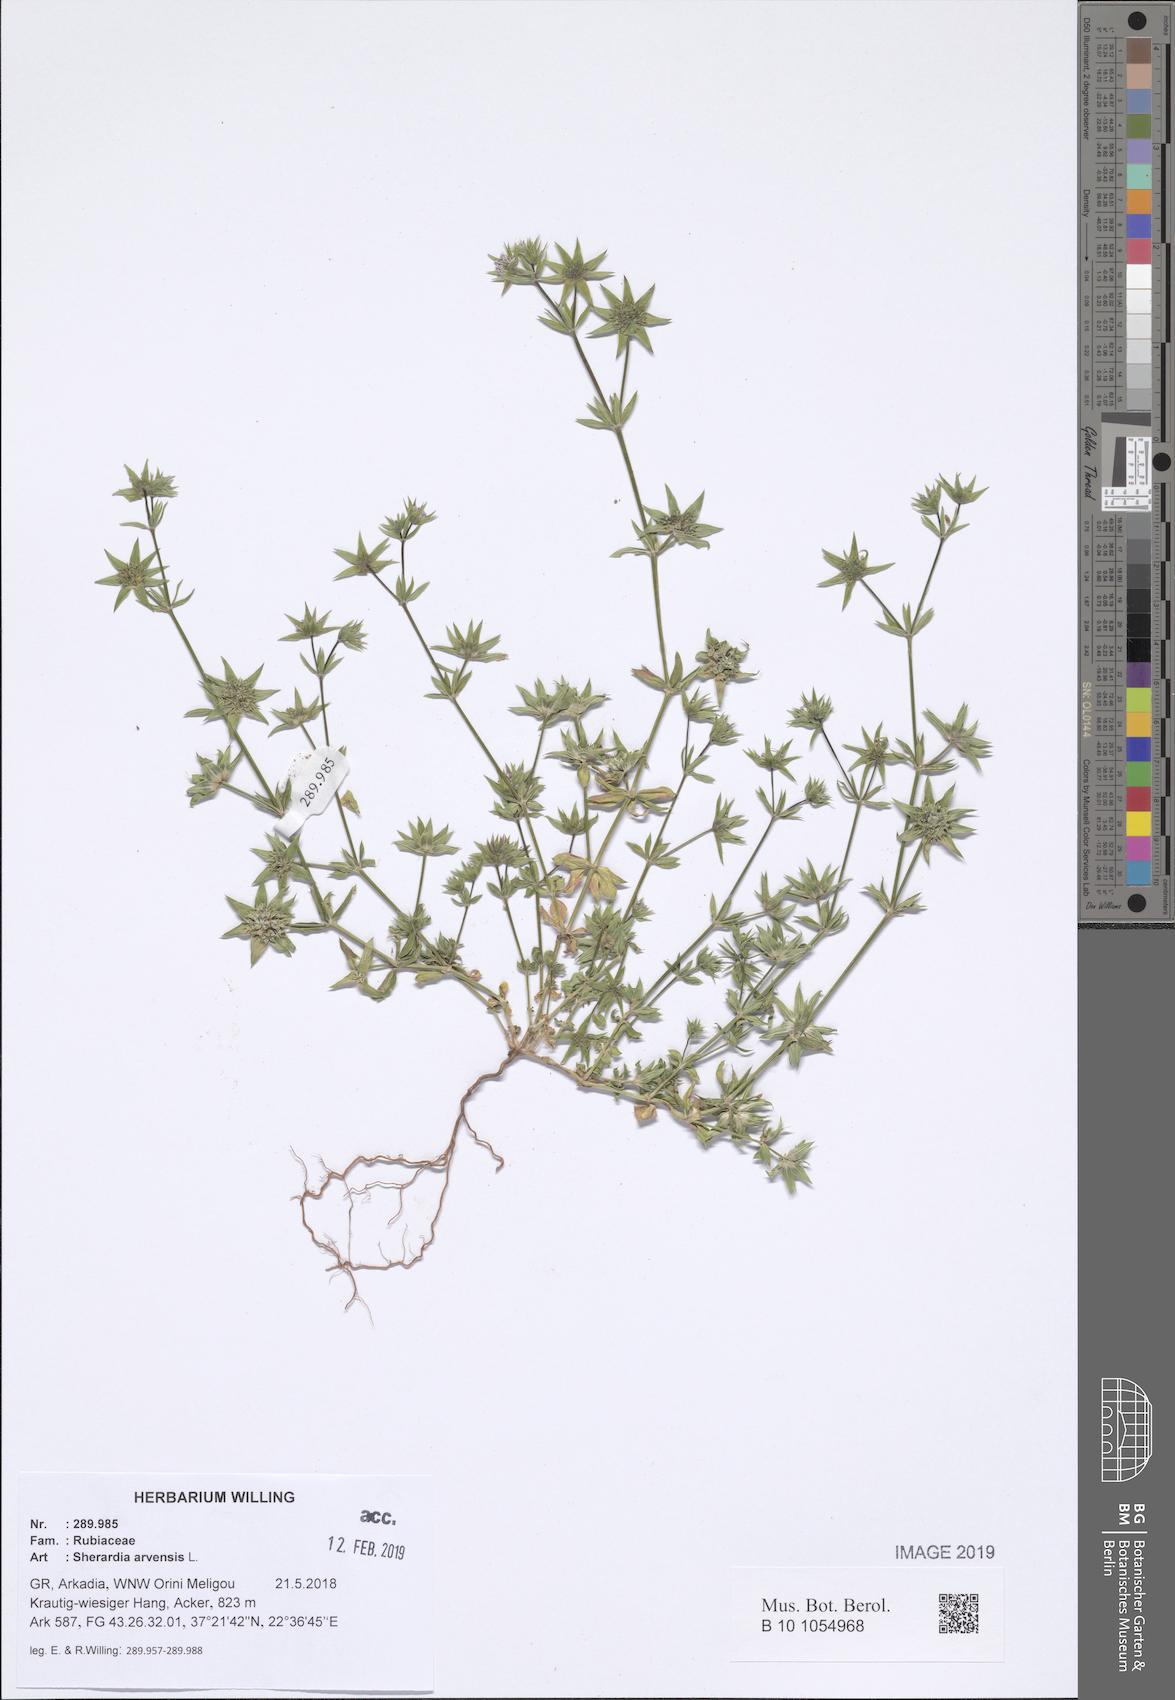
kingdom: Plantae
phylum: Tracheophyta
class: Magnoliopsida
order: Gentianales
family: Rubiaceae
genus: Sherardia
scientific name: Sherardia arvensis
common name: Field madder
